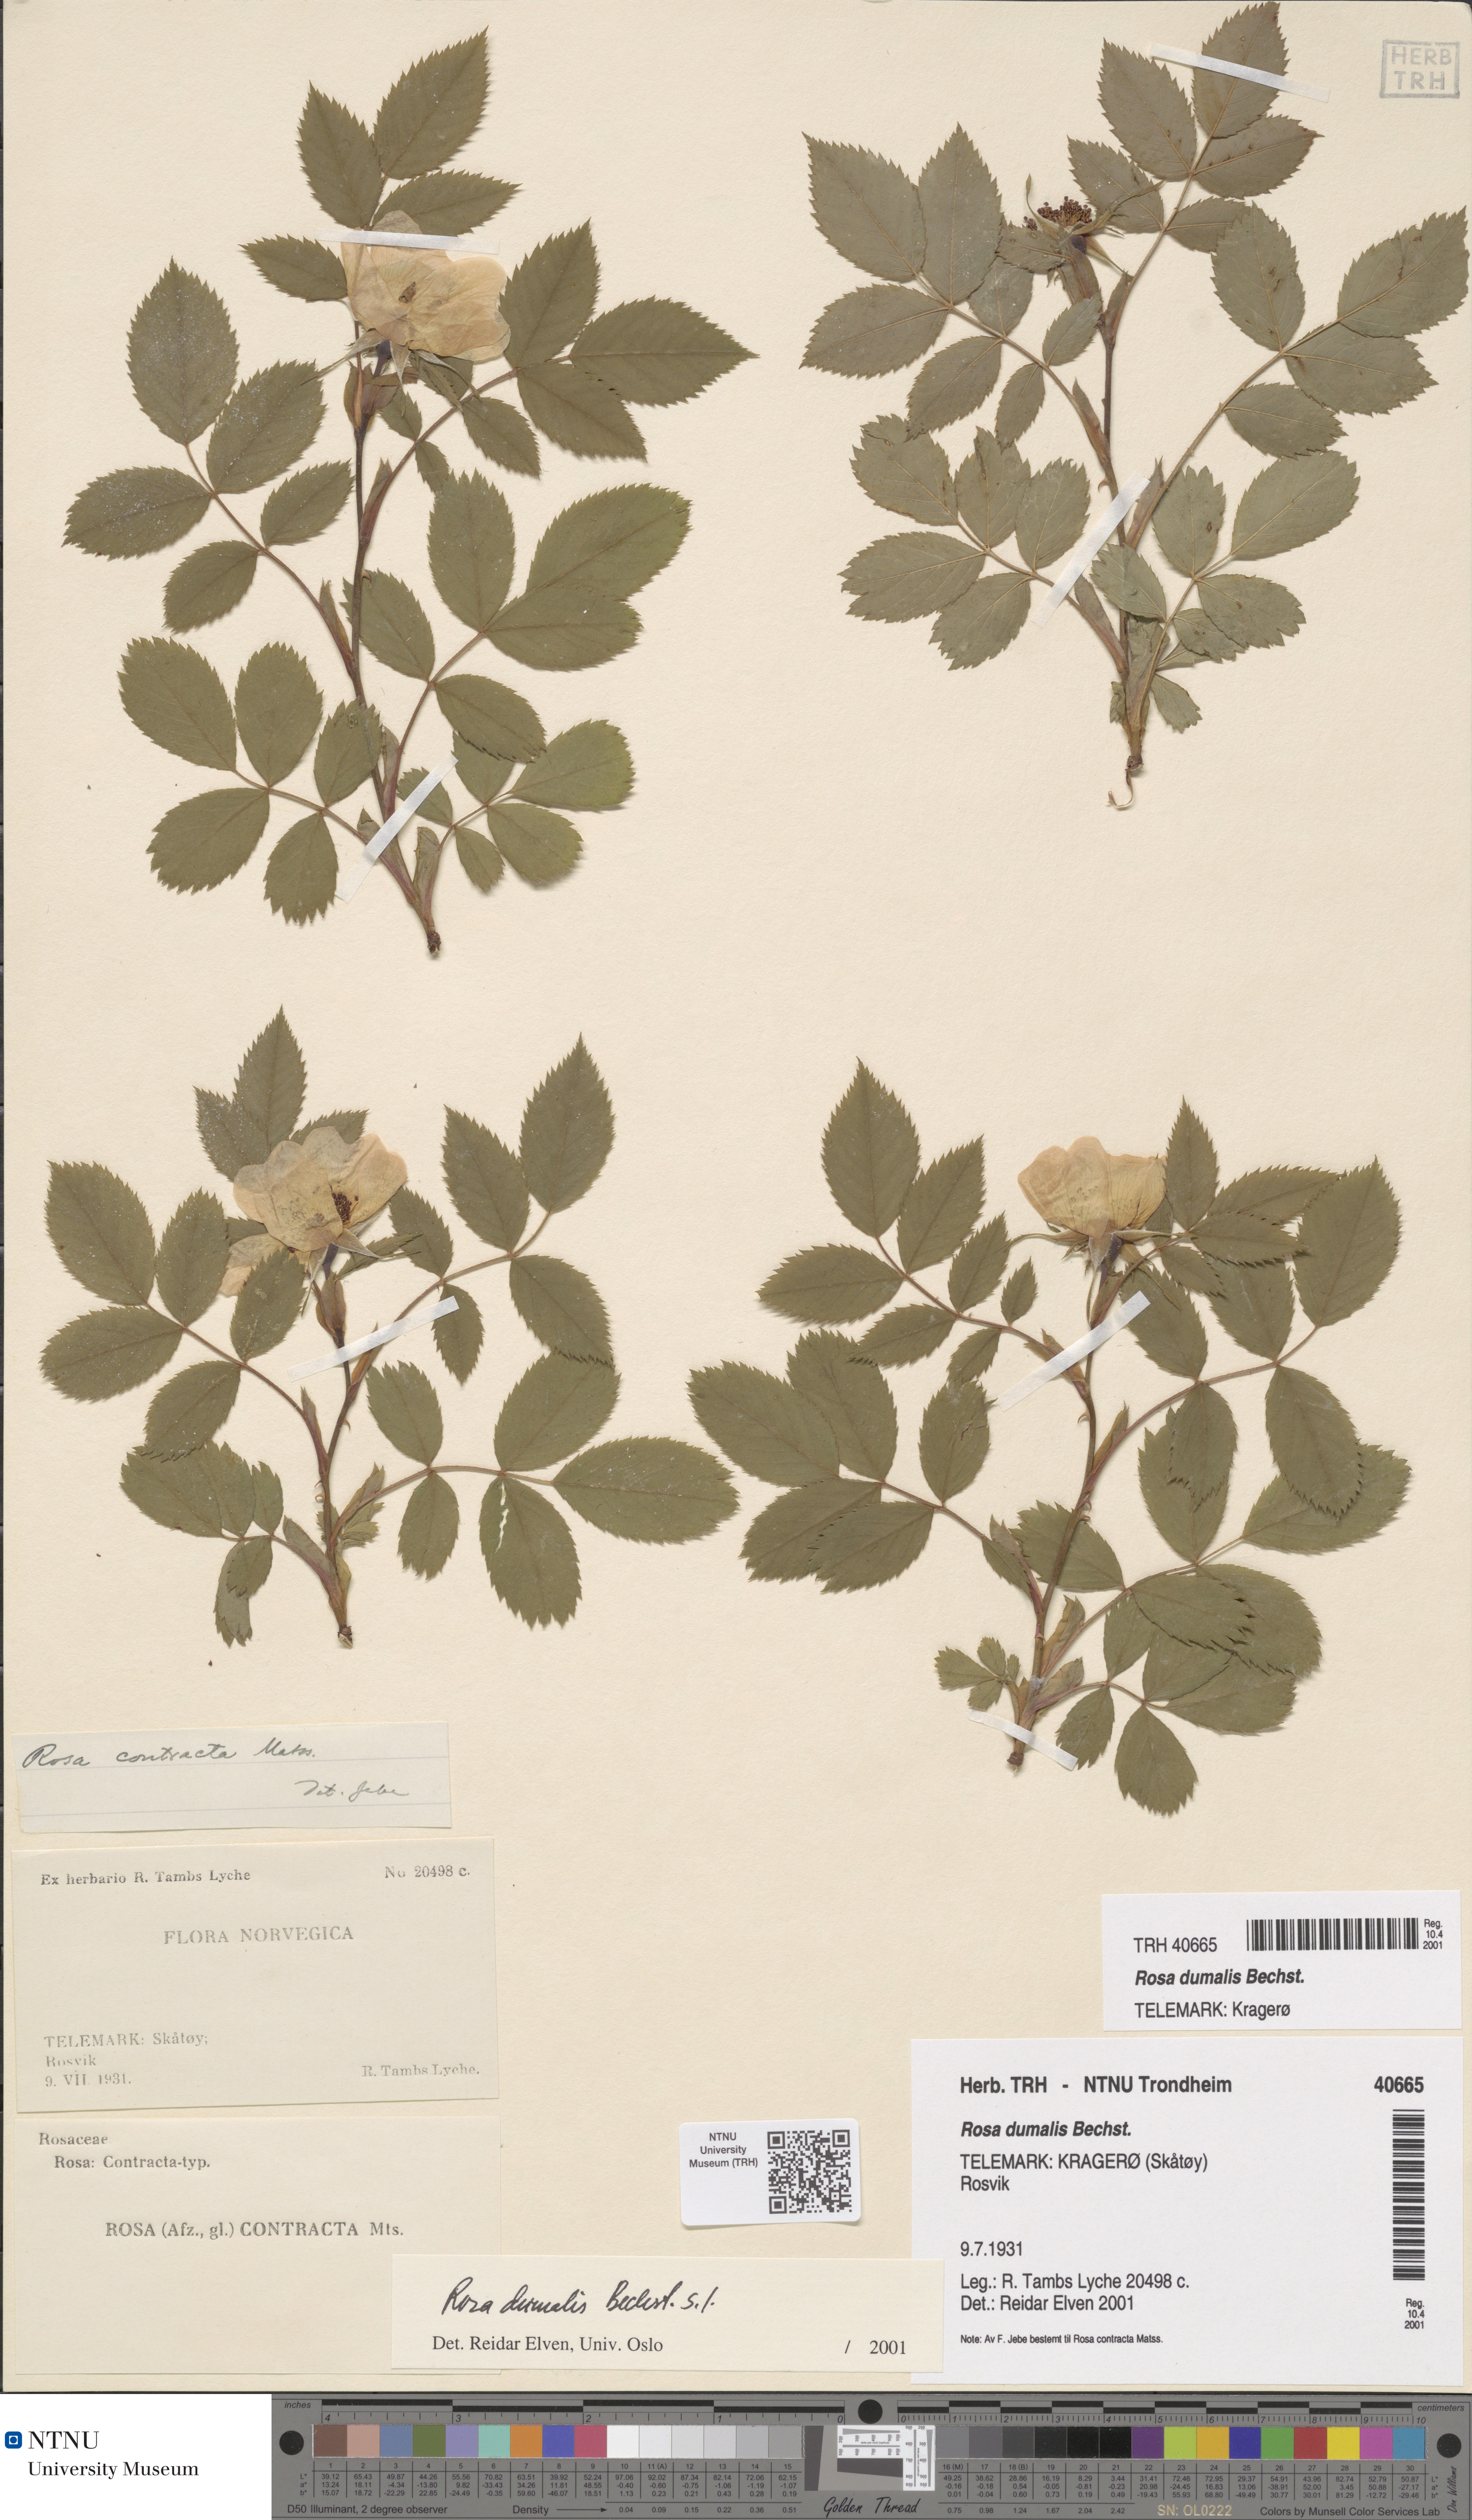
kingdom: Plantae
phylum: Tracheophyta
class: Magnoliopsida
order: Rosales
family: Rosaceae
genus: Rosa
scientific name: Rosa dumalis
